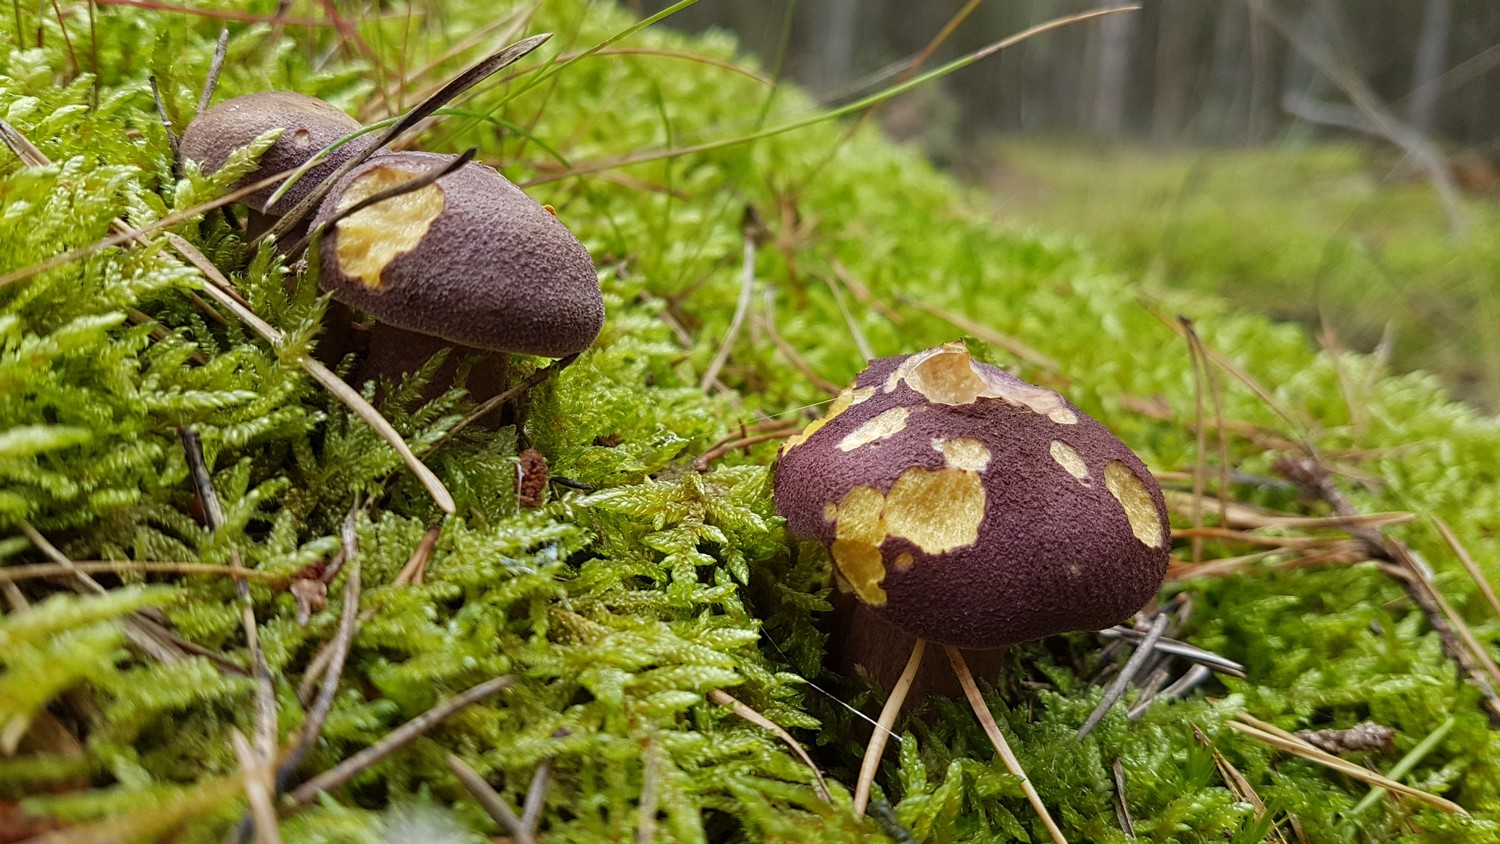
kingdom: Fungi
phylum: Basidiomycota
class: Agaricomycetes
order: Agaricales
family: Tricholomataceae
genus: Tricholomopsis
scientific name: Tricholomopsis rutilans
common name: purpur-væbnerhat
